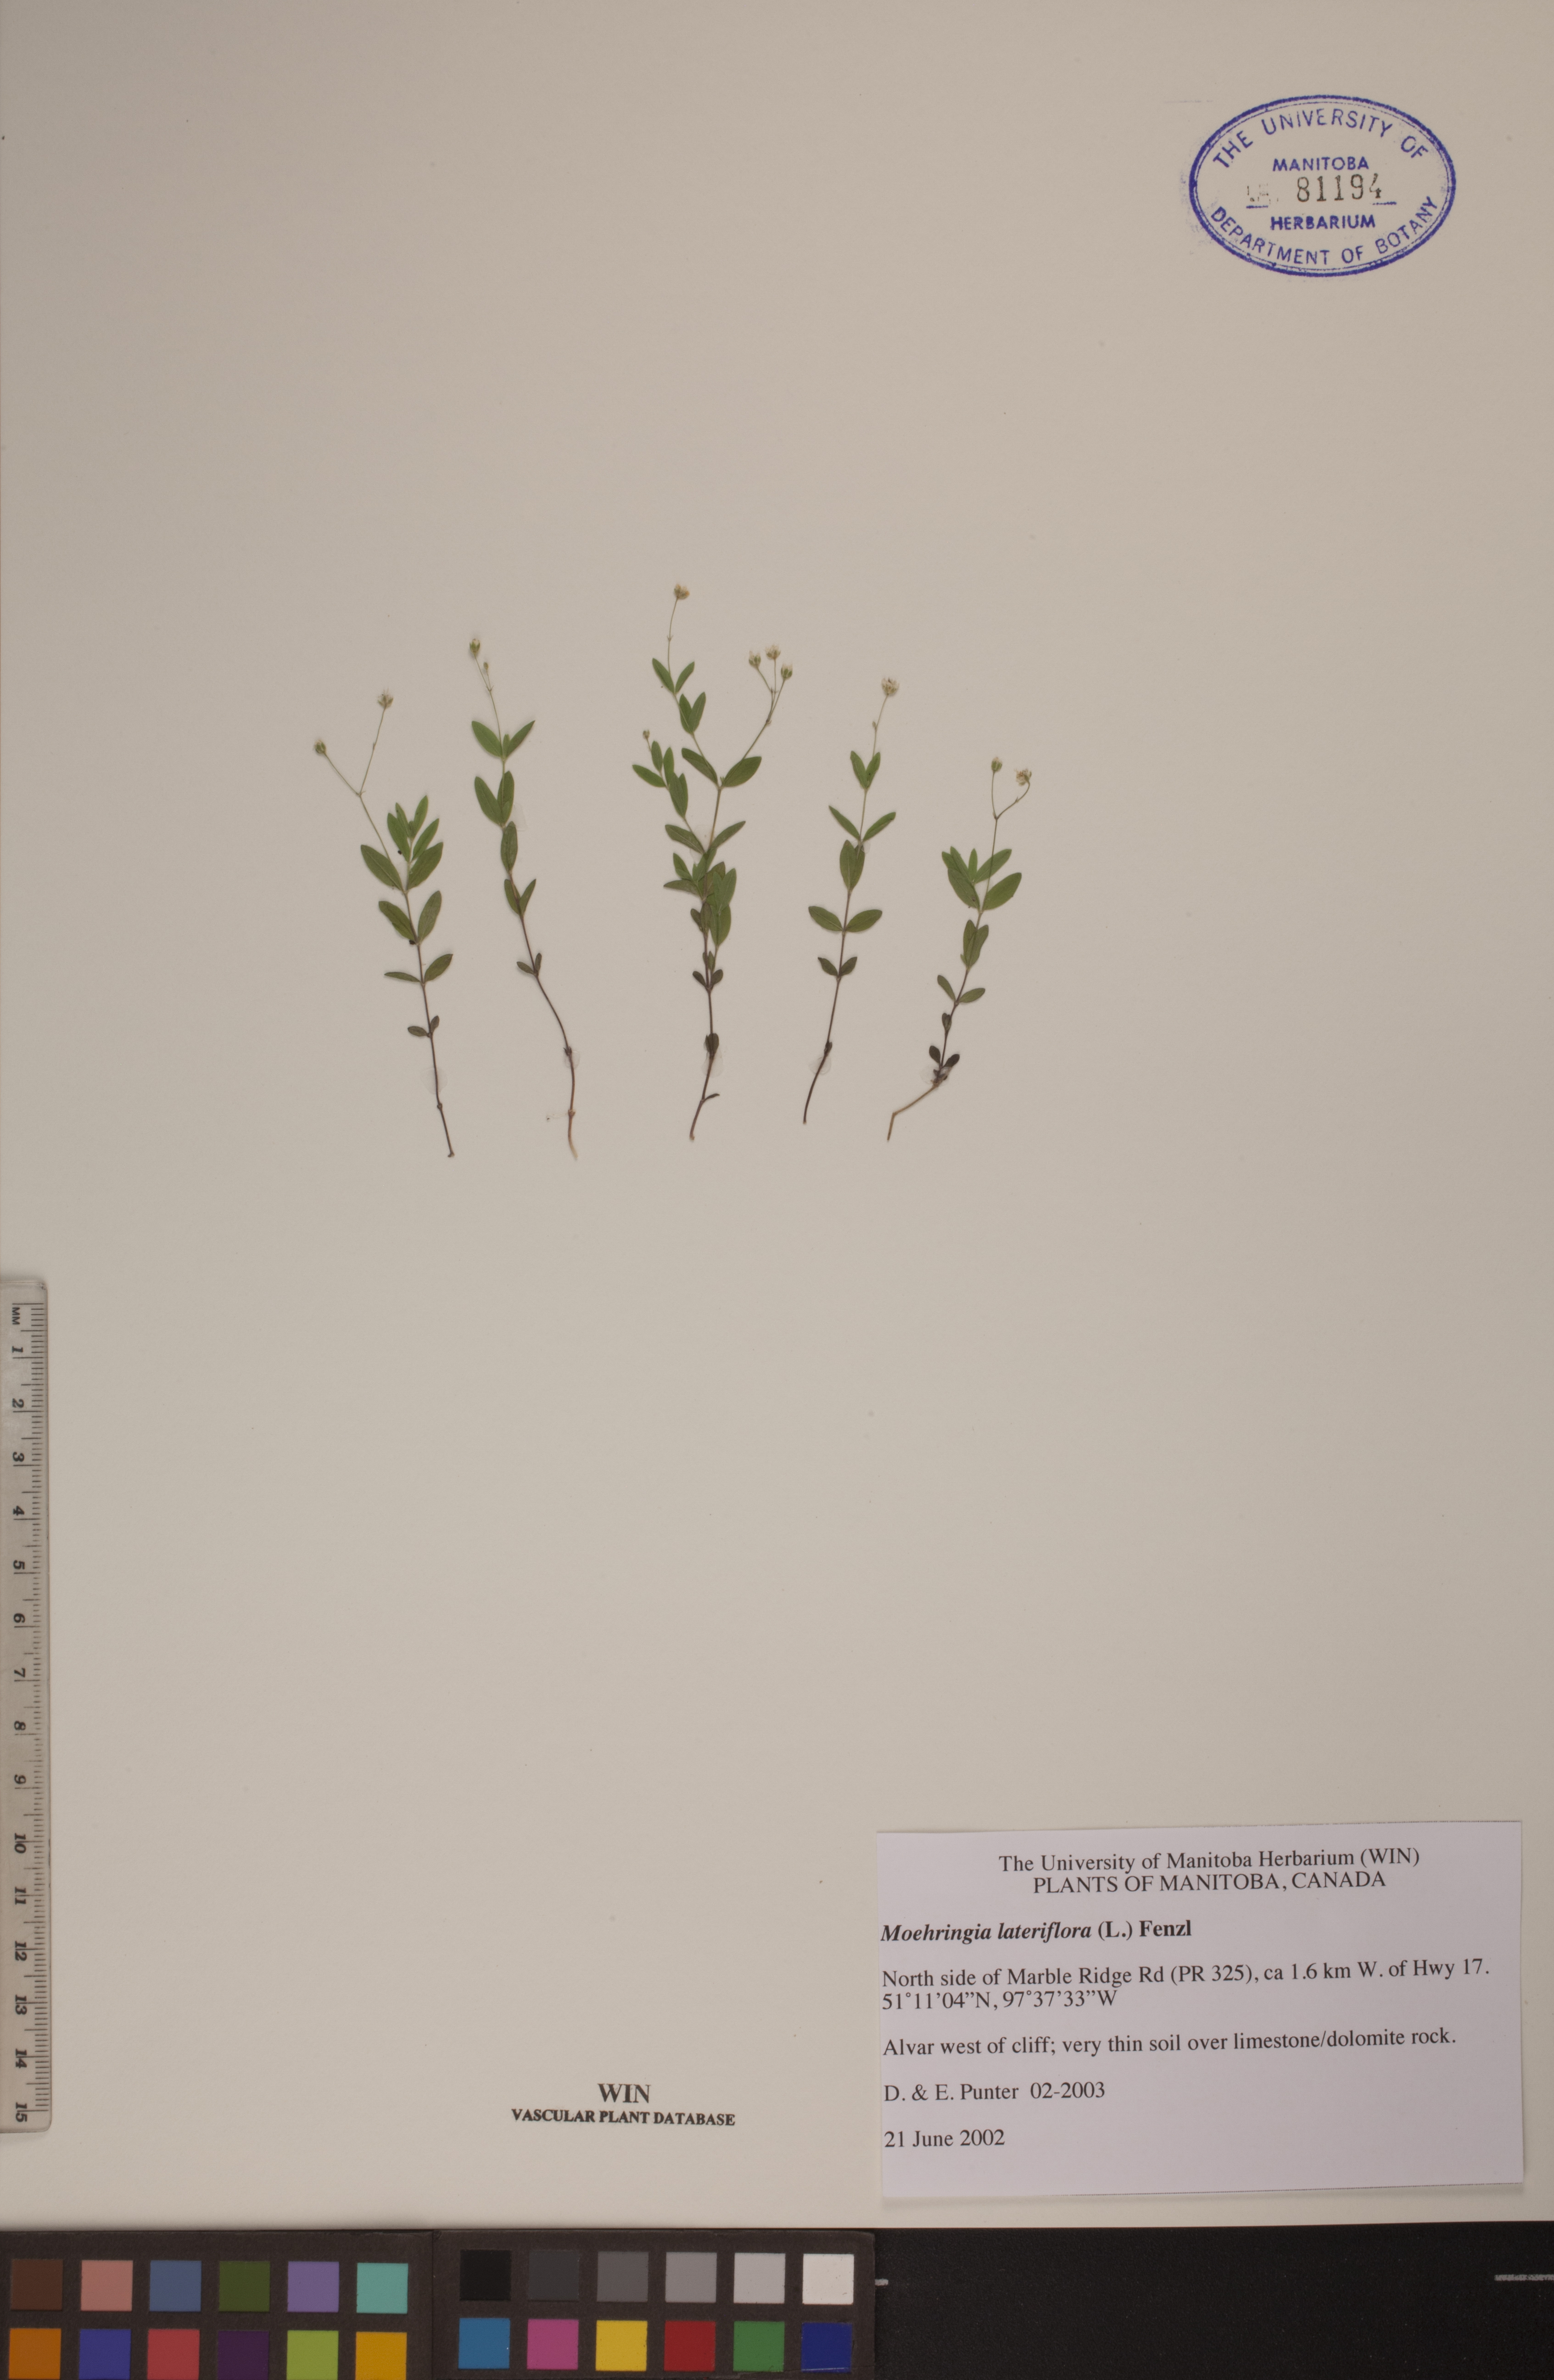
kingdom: Plantae
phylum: Tracheophyta
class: Magnoliopsida
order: Caryophyllales
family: Caryophyllaceae
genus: Moehringia
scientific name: Moehringia lateriflora
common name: Blunt-leaved sandwort
